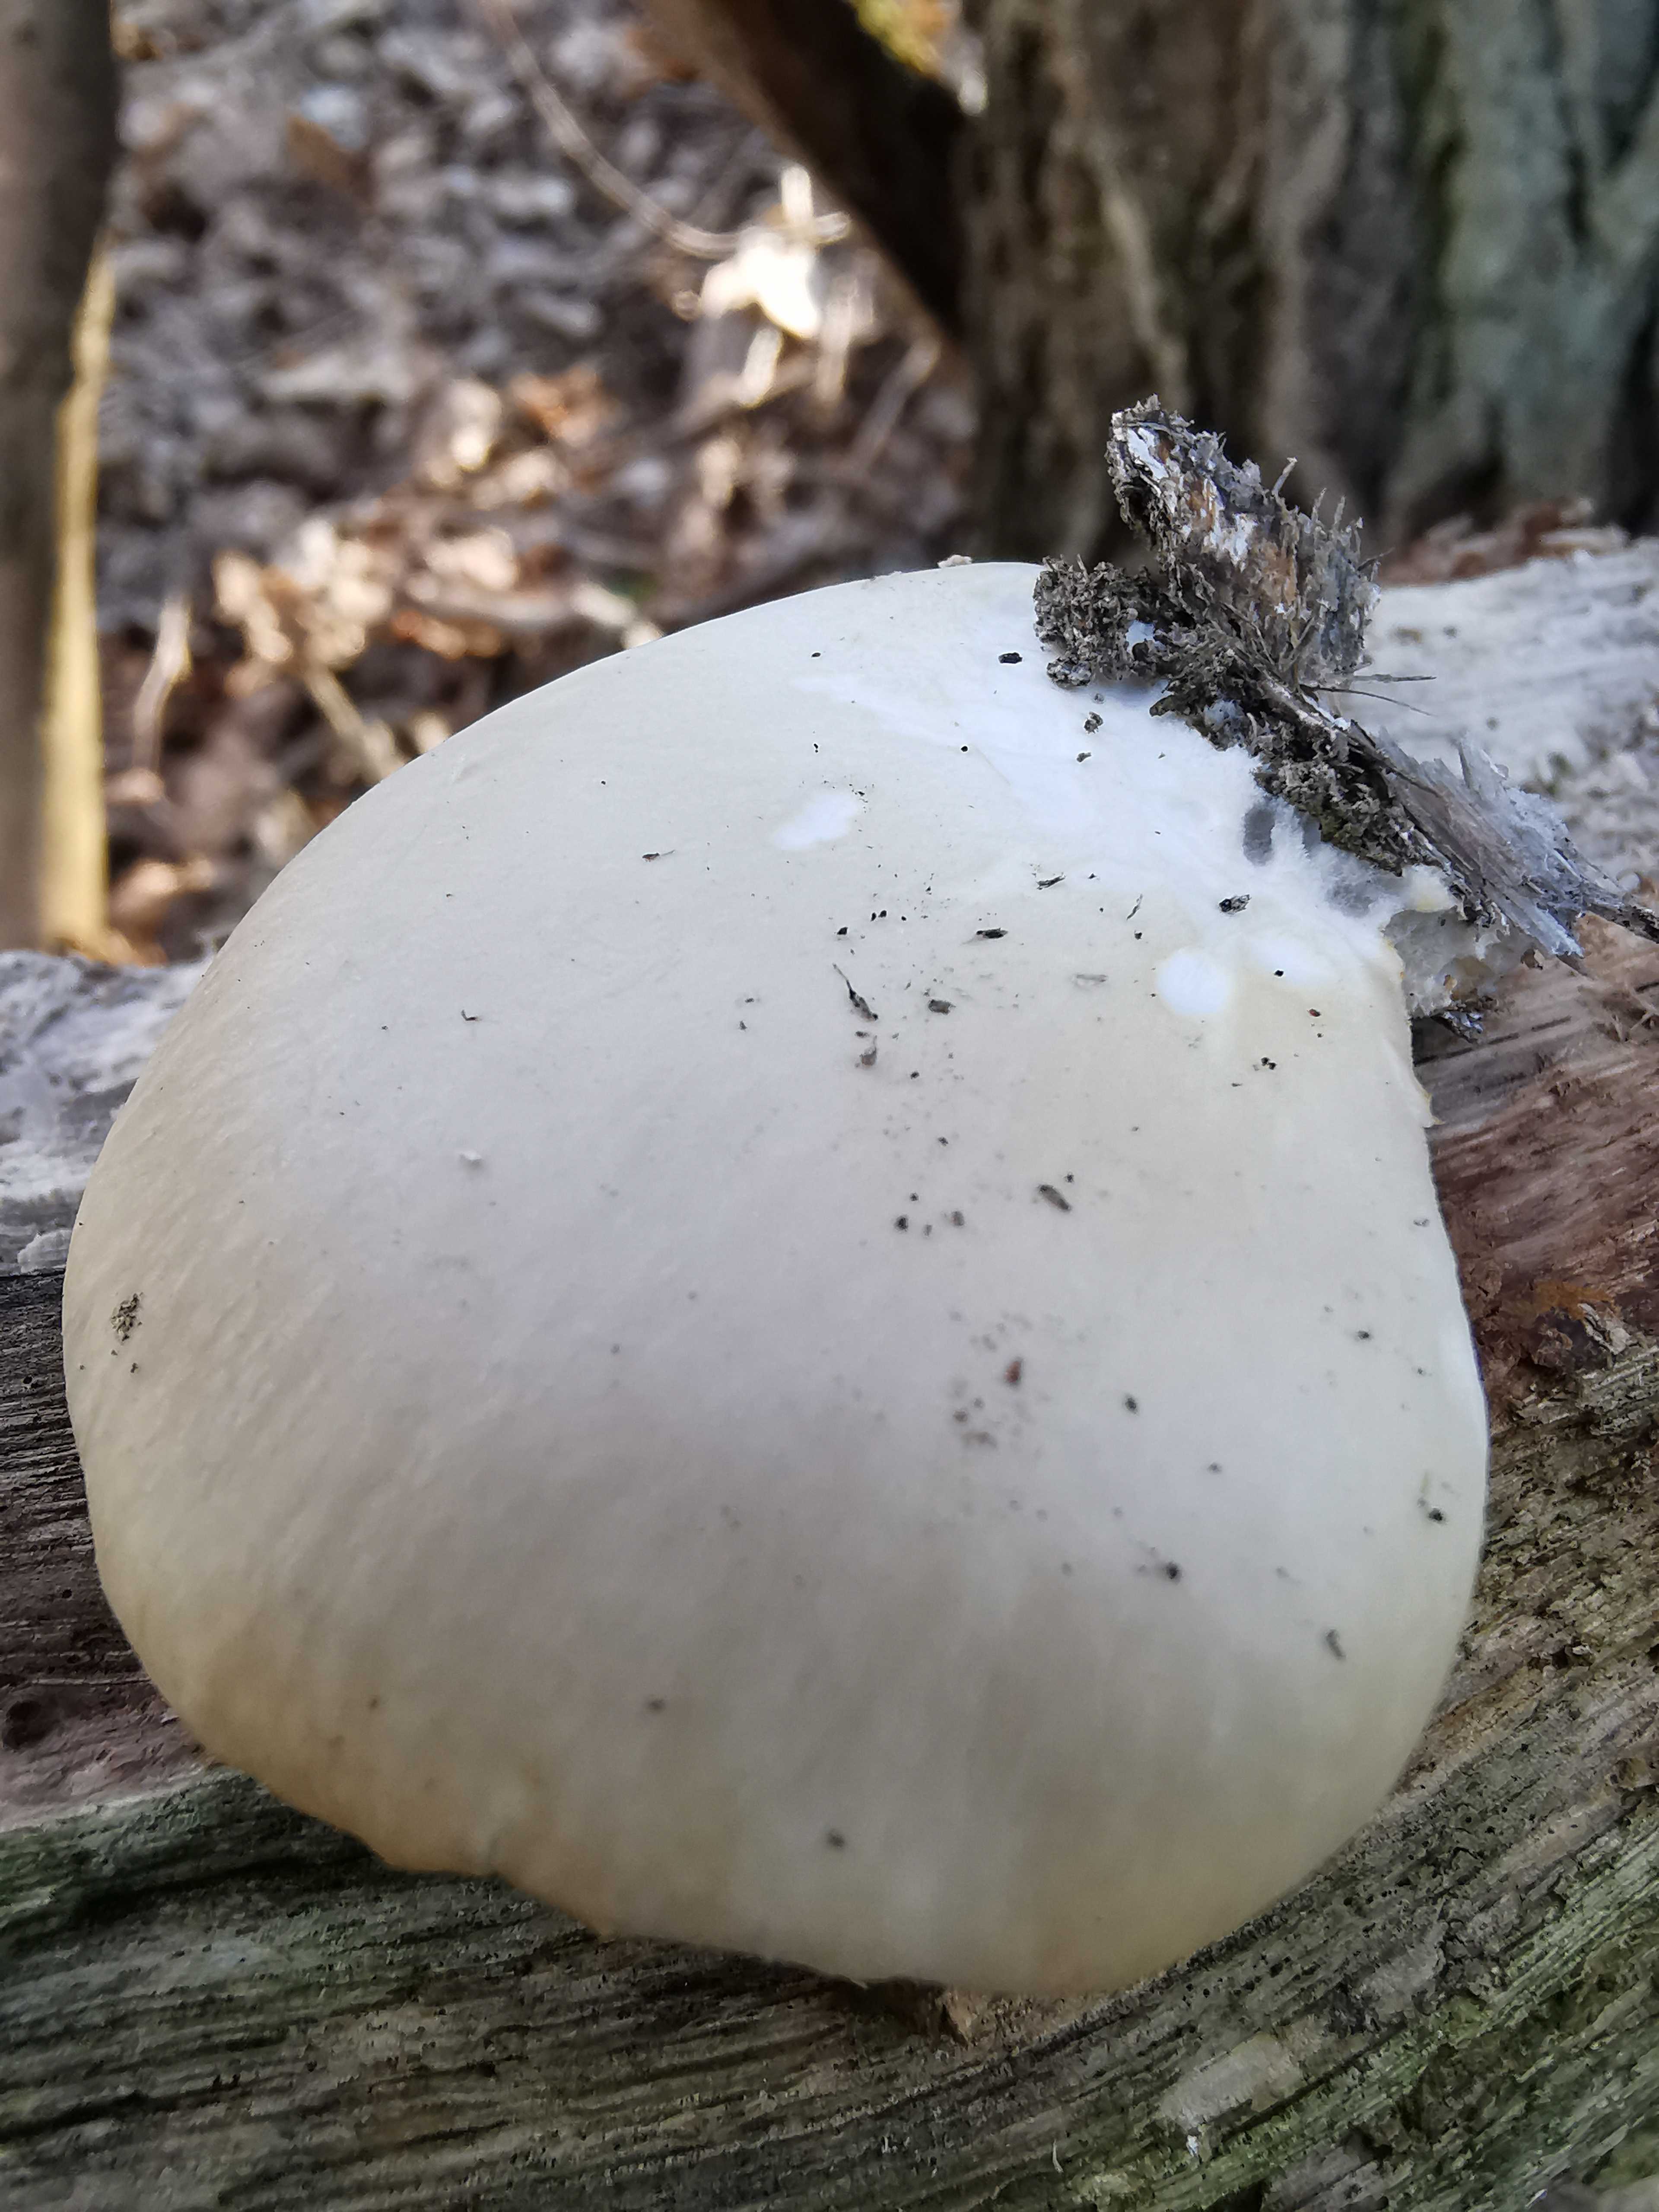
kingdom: Fungi
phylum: Basidiomycota
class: Agaricomycetes
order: Agaricales
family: Pleurotaceae
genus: Pleurotus
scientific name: Pleurotus ostreatus
